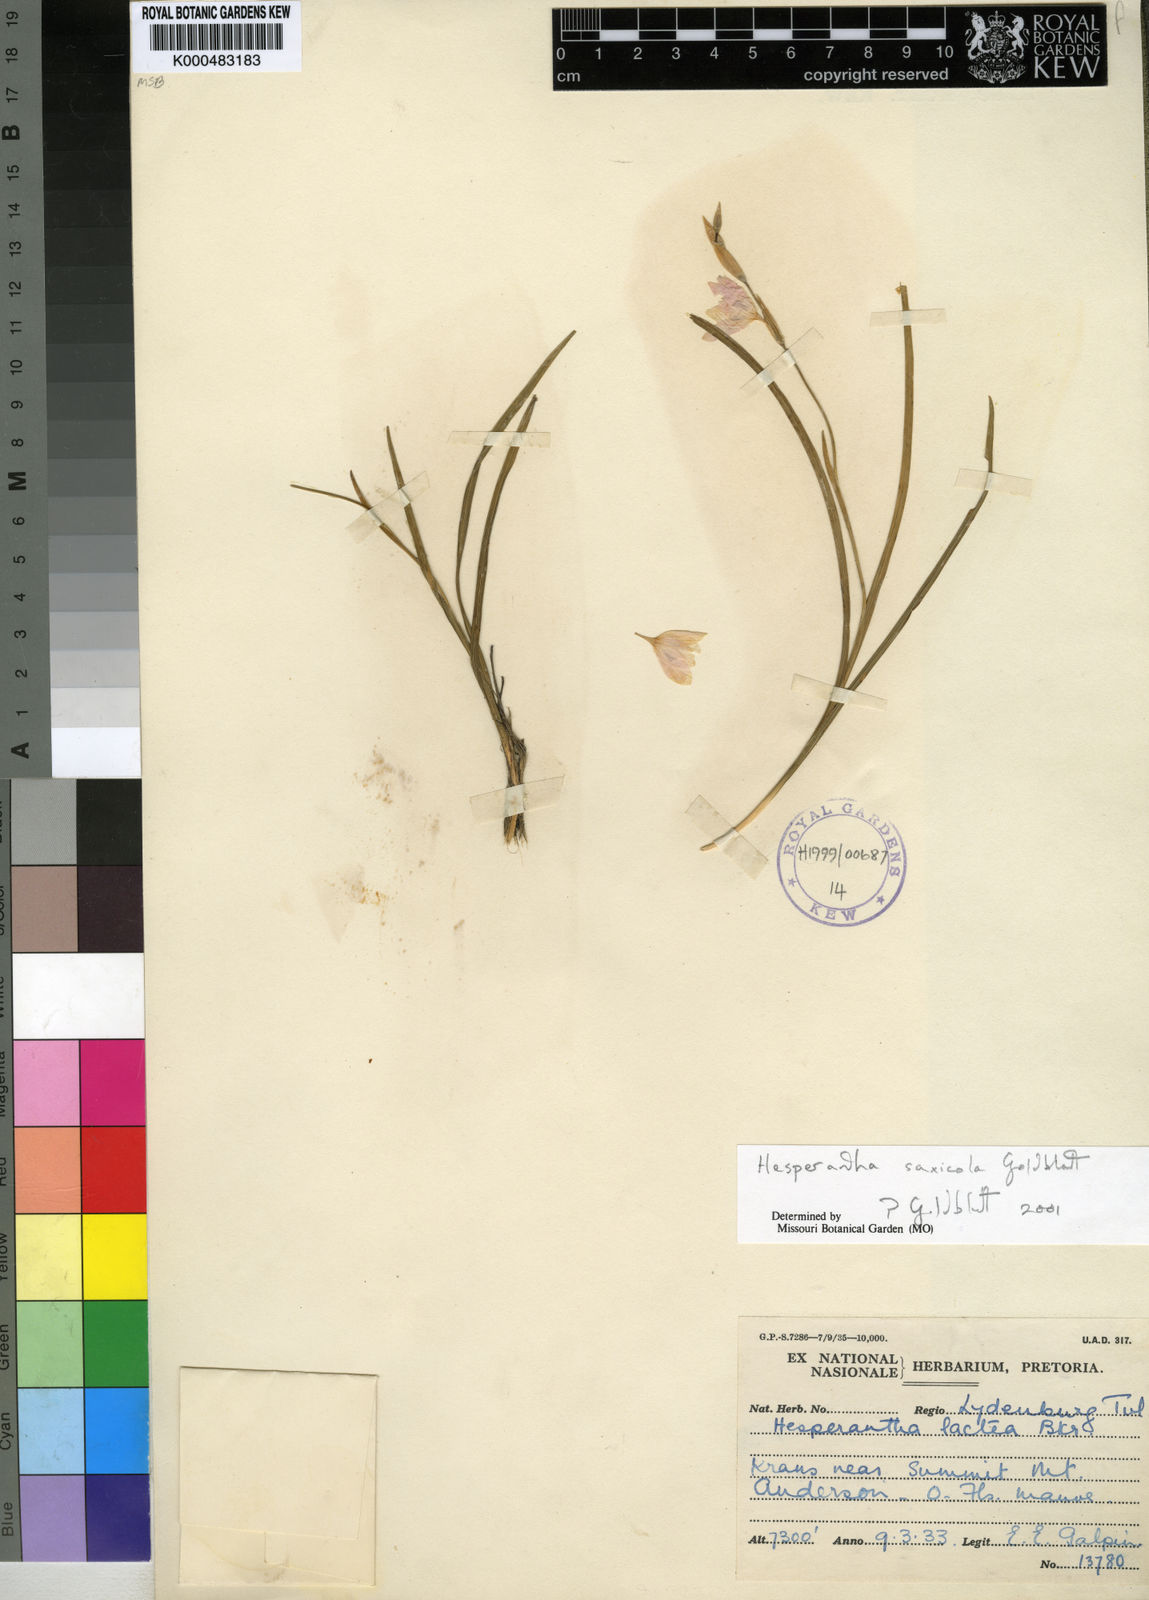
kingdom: Plantae
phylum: Tracheophyta
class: Liliopsida
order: Asparagales
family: Iridaceae
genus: Hesperantha
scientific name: Hesperantha saxicola
